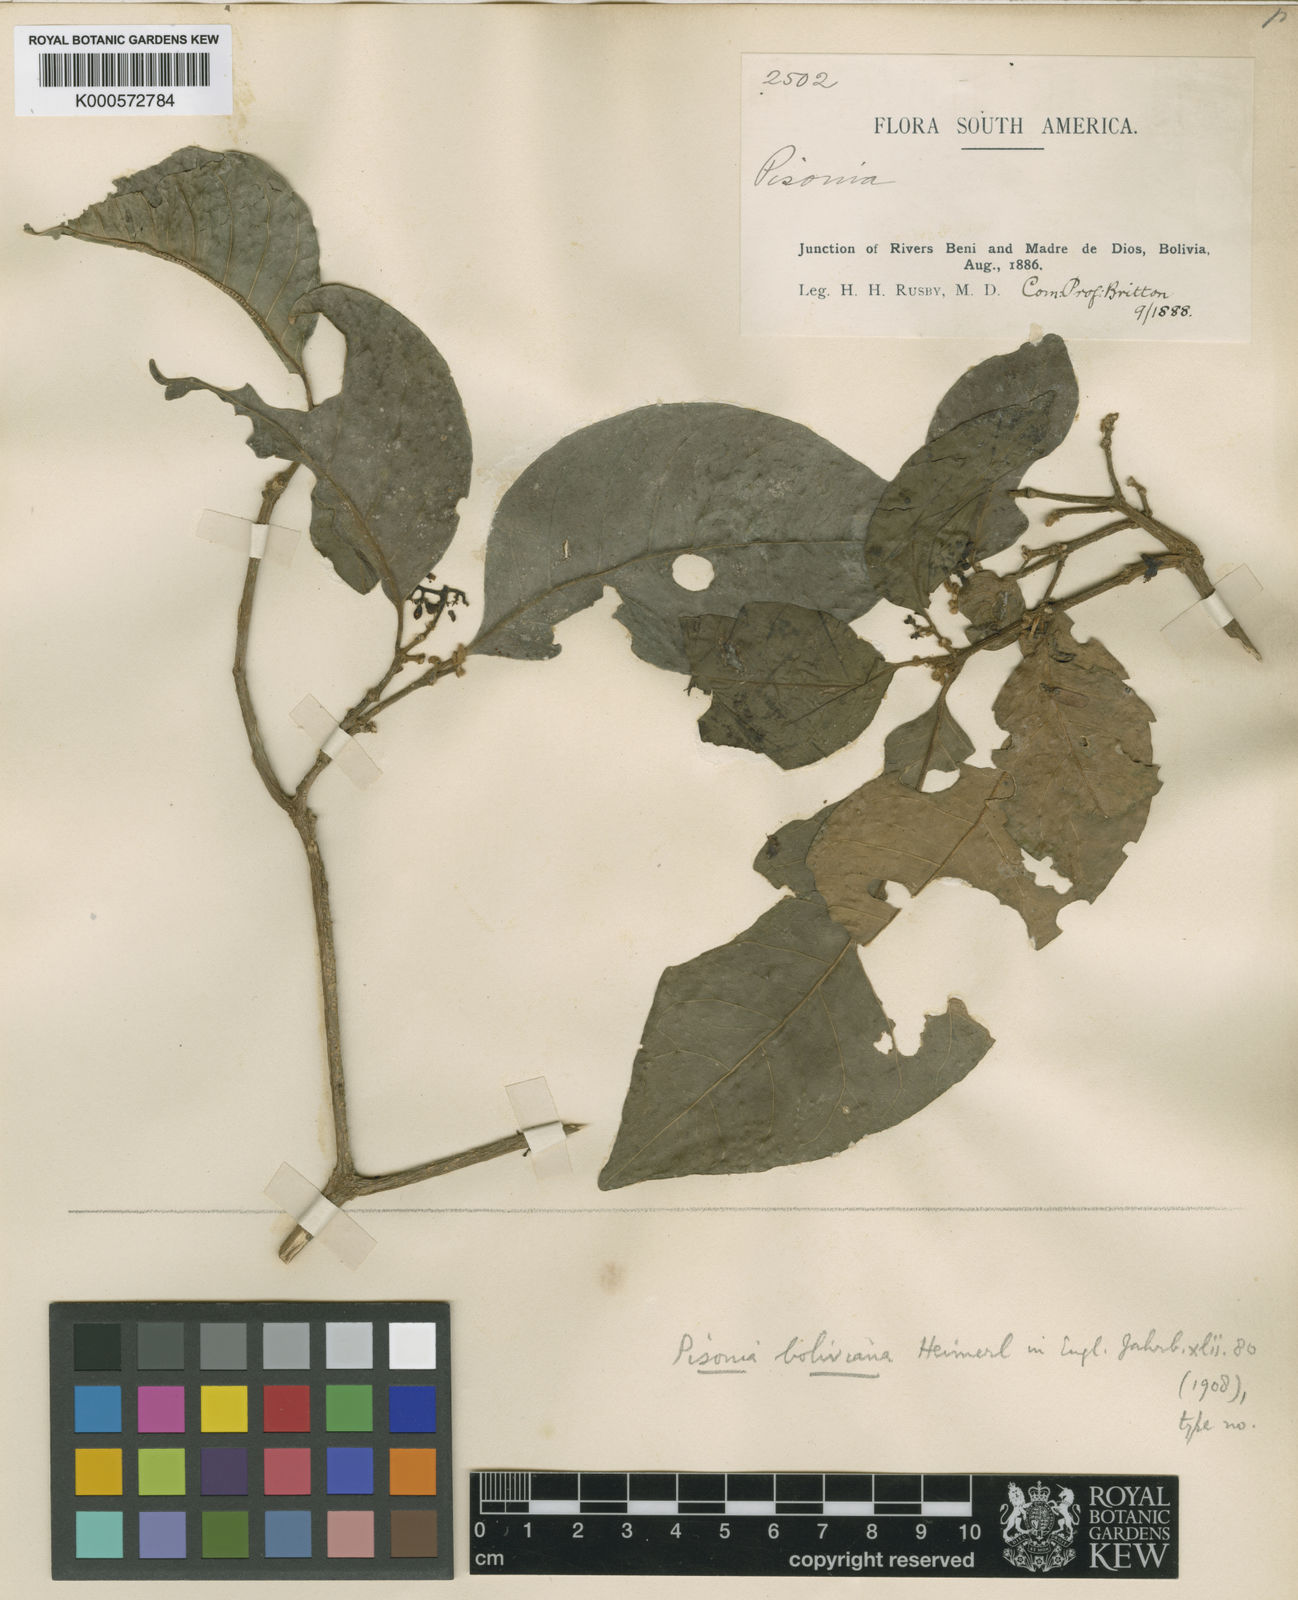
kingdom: Plantae
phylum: Tracheophyta
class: Magnoliopsida
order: Caryophyllales
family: Nyctaginaceae
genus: Guapira
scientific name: Guapira boliviana
